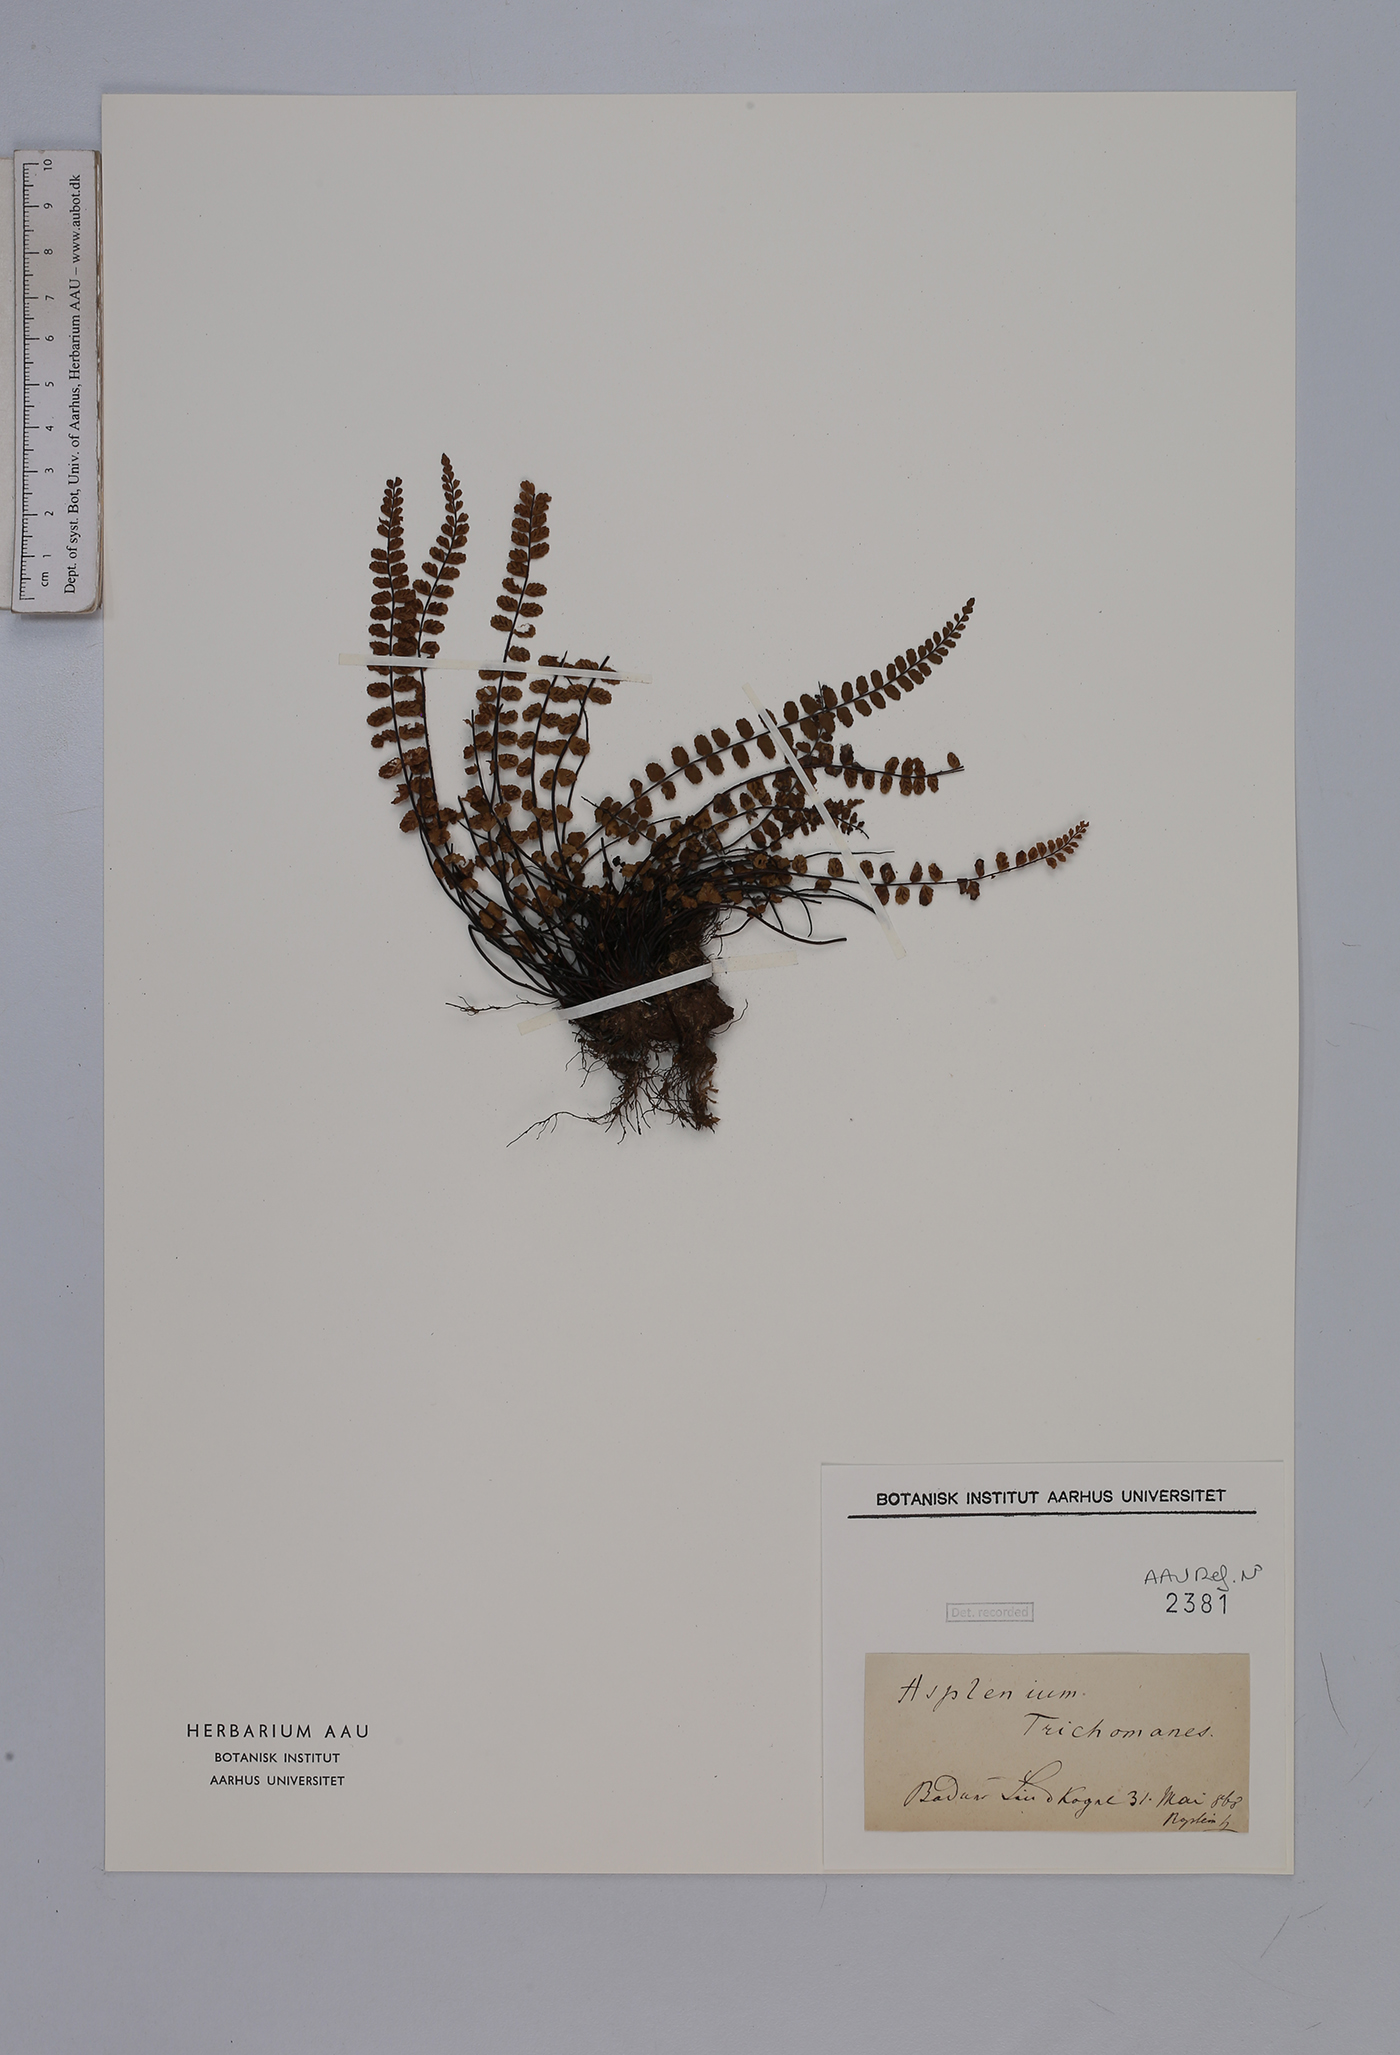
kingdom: Plantae
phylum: Tracheophyta
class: Polypodiopsida
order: Polypodiales
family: Aspleniaceae
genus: Asplenium
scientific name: Asplenium trichomanes
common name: Maidenhair spleenwort
